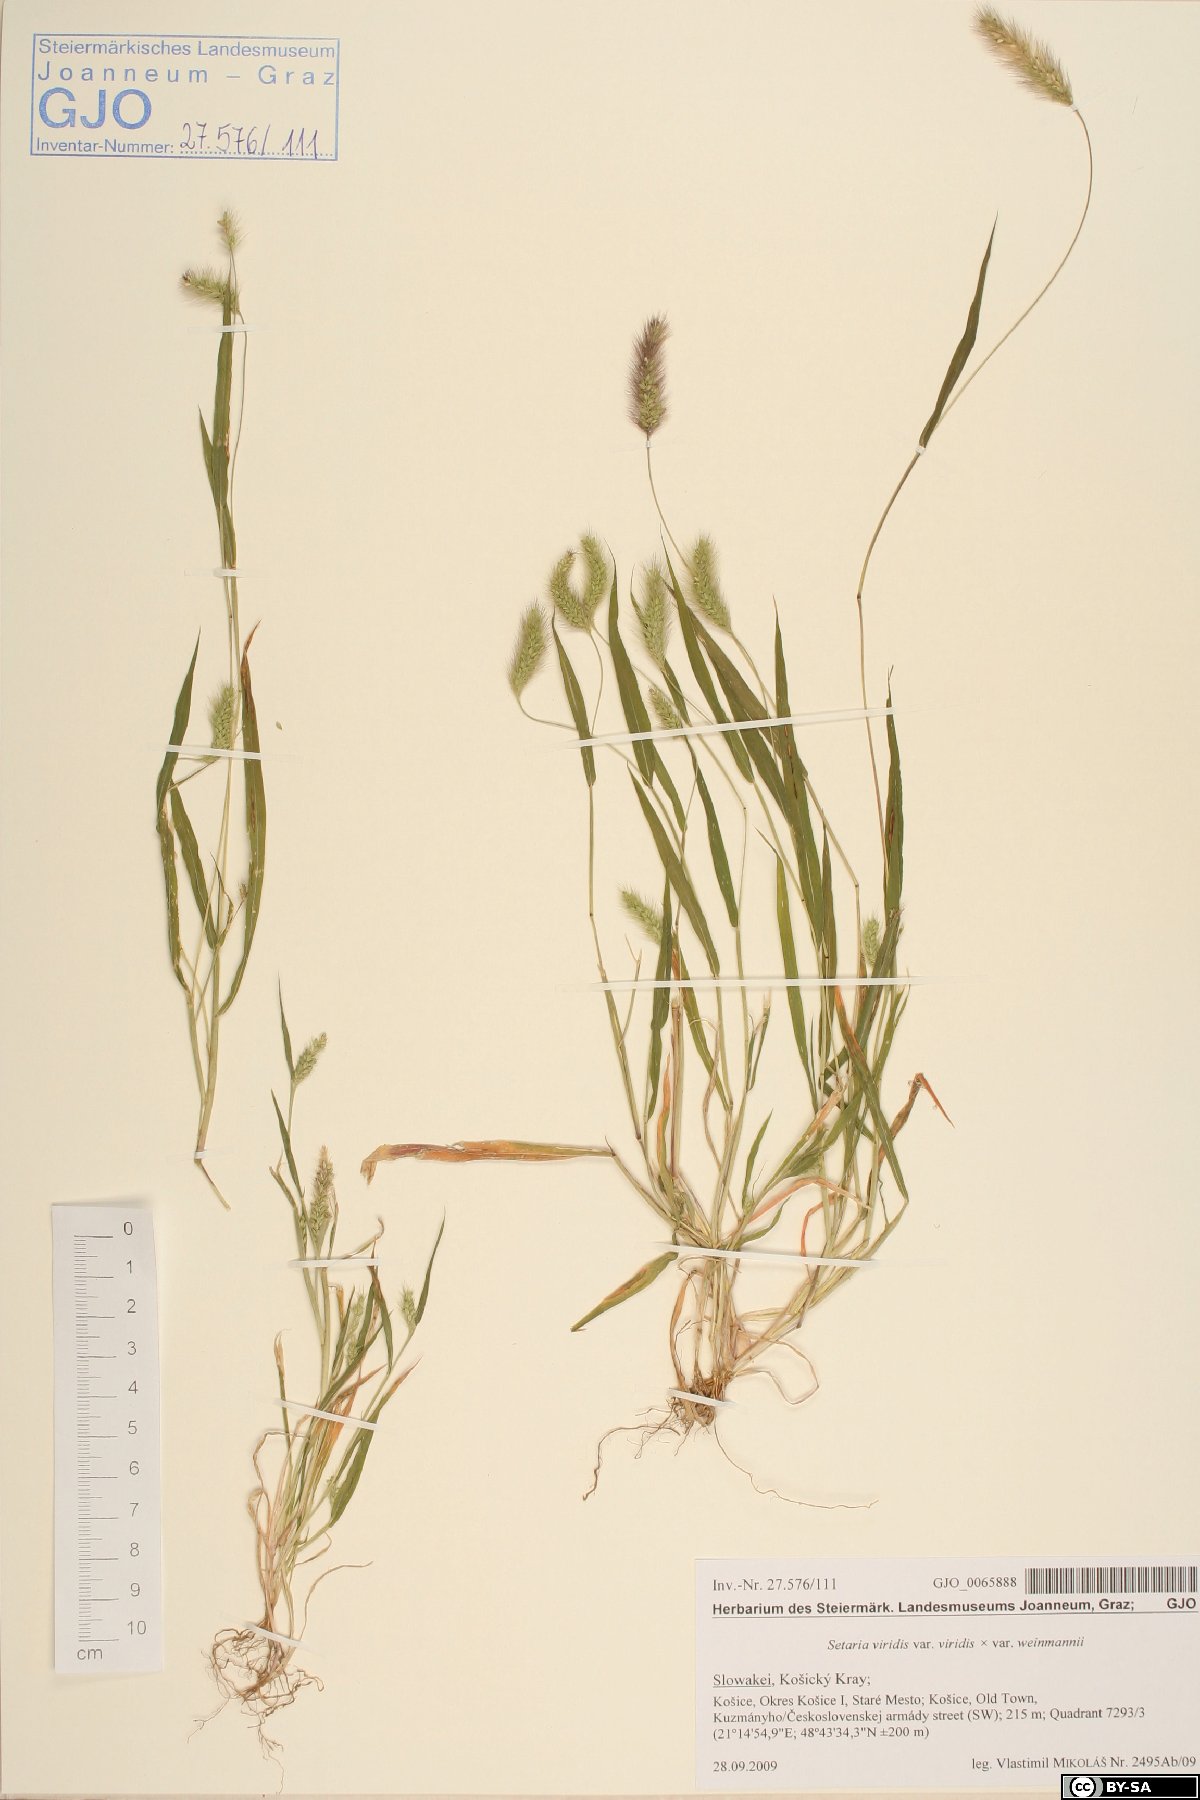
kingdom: Plantae
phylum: Tracheophyta
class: Liliopsida
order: Poales
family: Poaceae
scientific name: Poaceae
